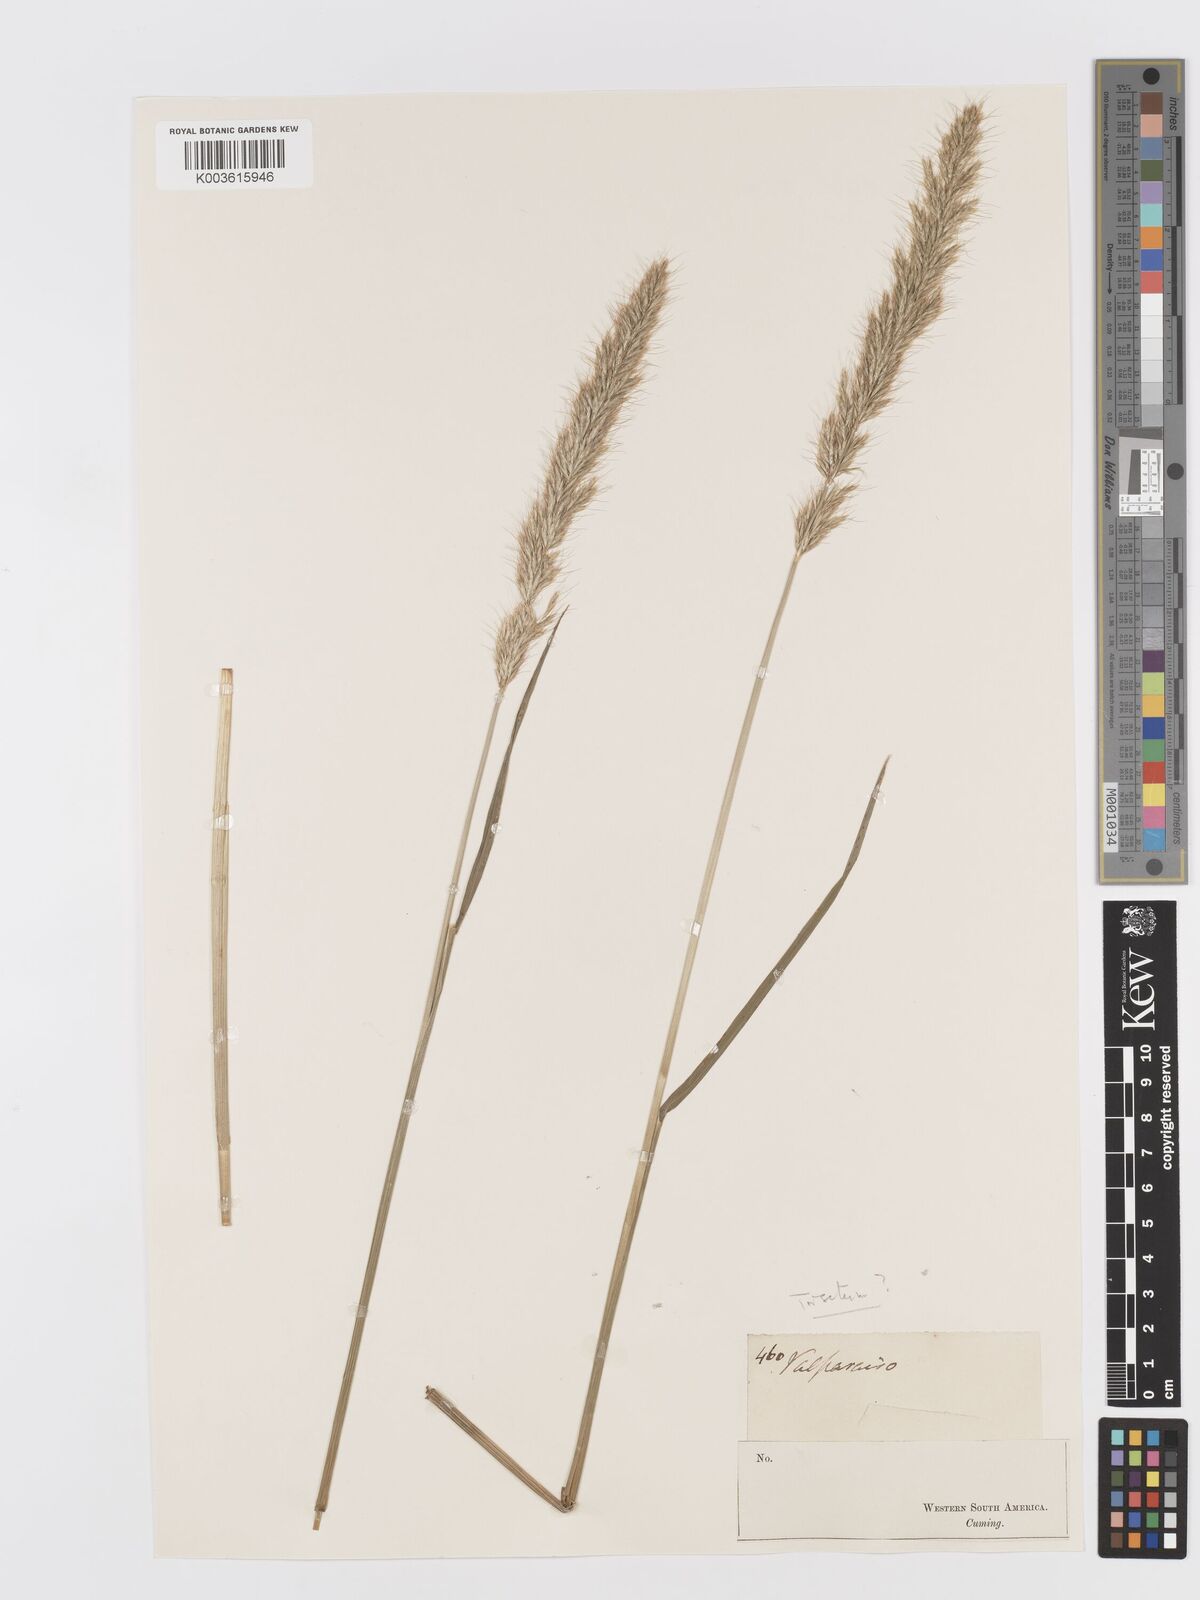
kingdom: Plantae
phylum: Tracheophyta
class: Liliopsida
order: Poales
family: Poaceae
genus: Koeleria
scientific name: Koeleria spicata
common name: Mountain trisetum
